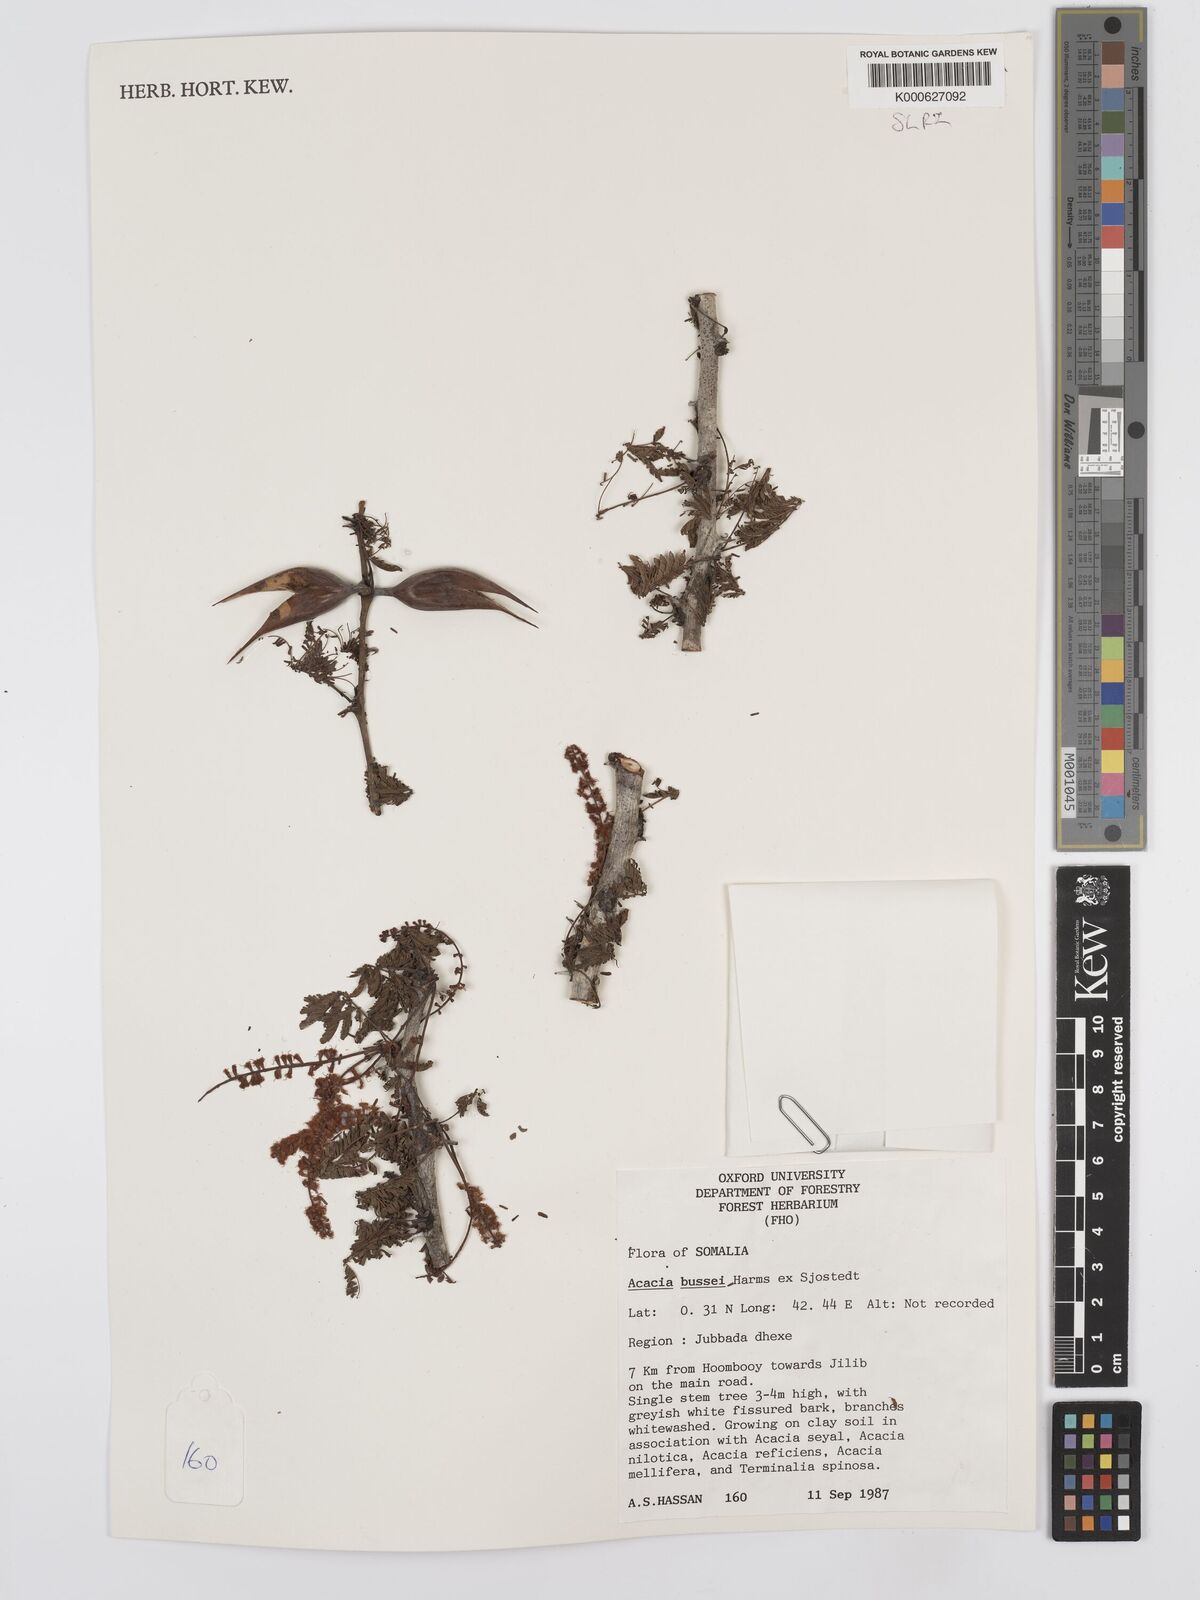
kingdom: Plantae
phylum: Tracheophyta
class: Magnoliopsida
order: Fabales
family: Fabaceae
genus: Vachellia
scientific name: Vachellia bussei
